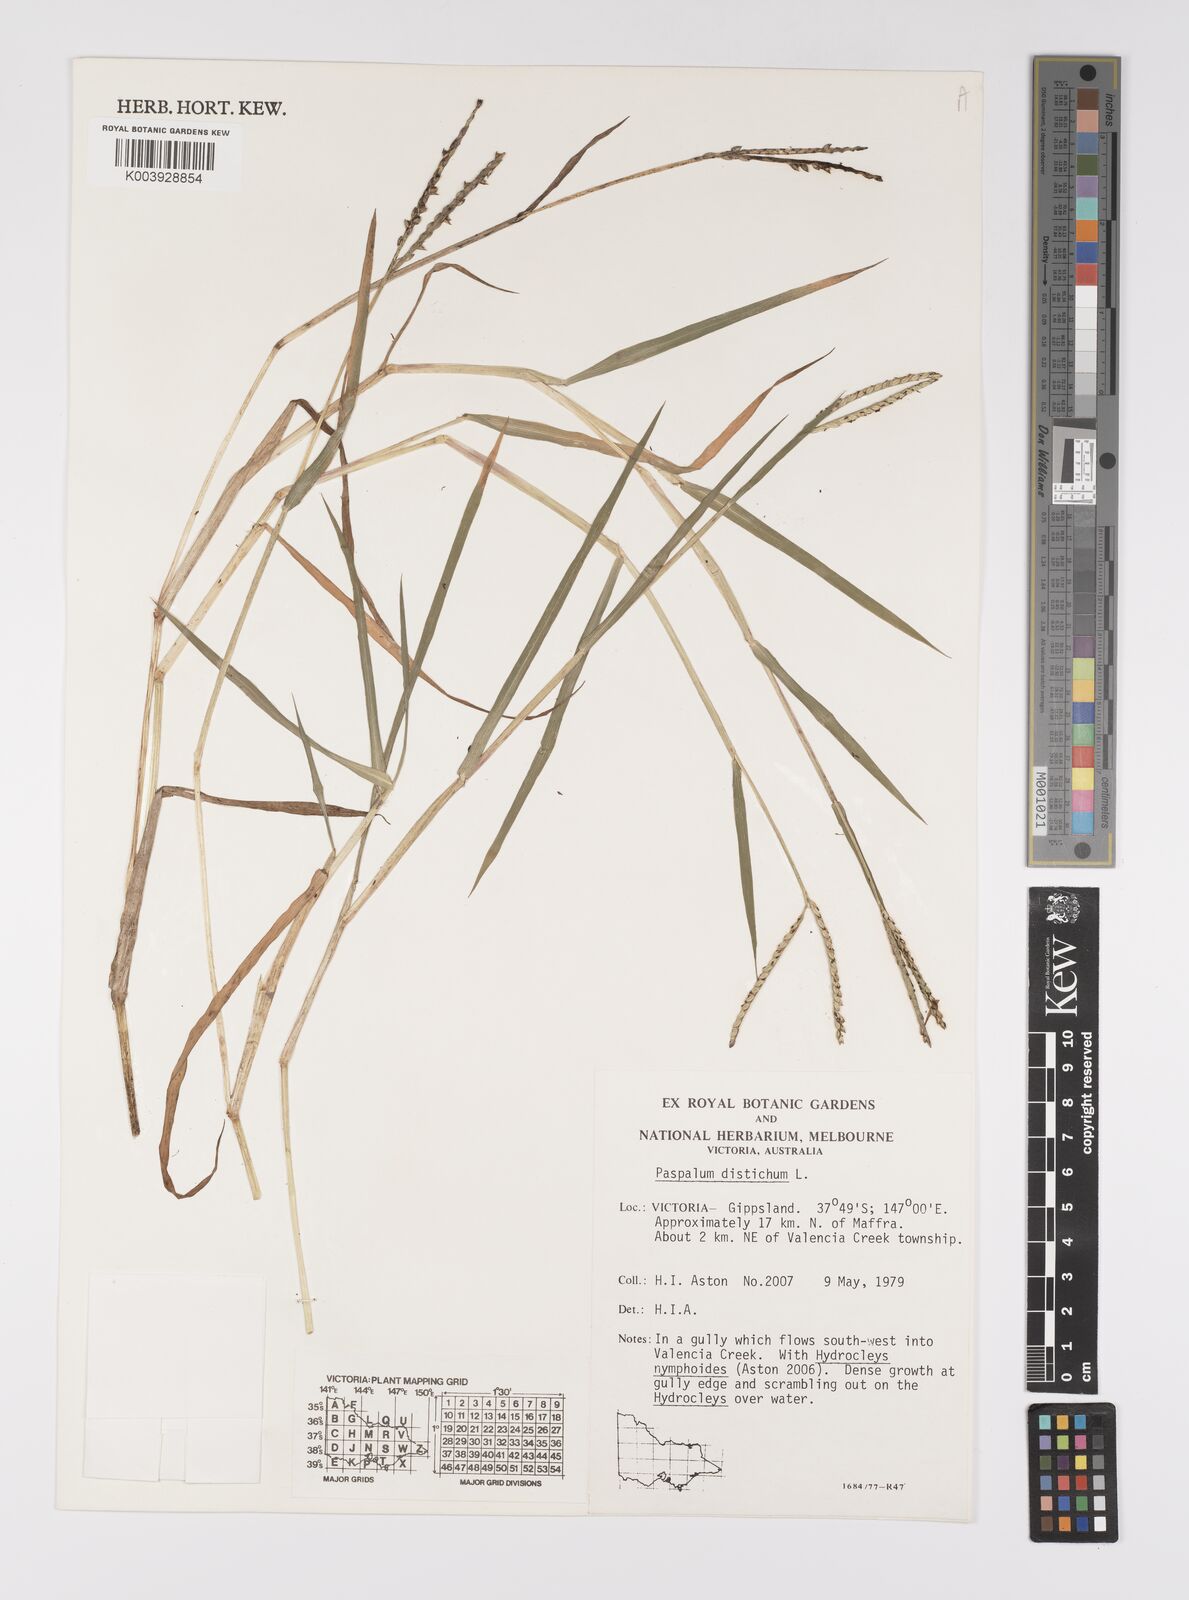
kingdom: Plantae
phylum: Tracheophyta
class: Liliopsida
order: Poales
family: Poaceae
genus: Paspalum
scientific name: Paspalum distichum
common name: Knotgrass
